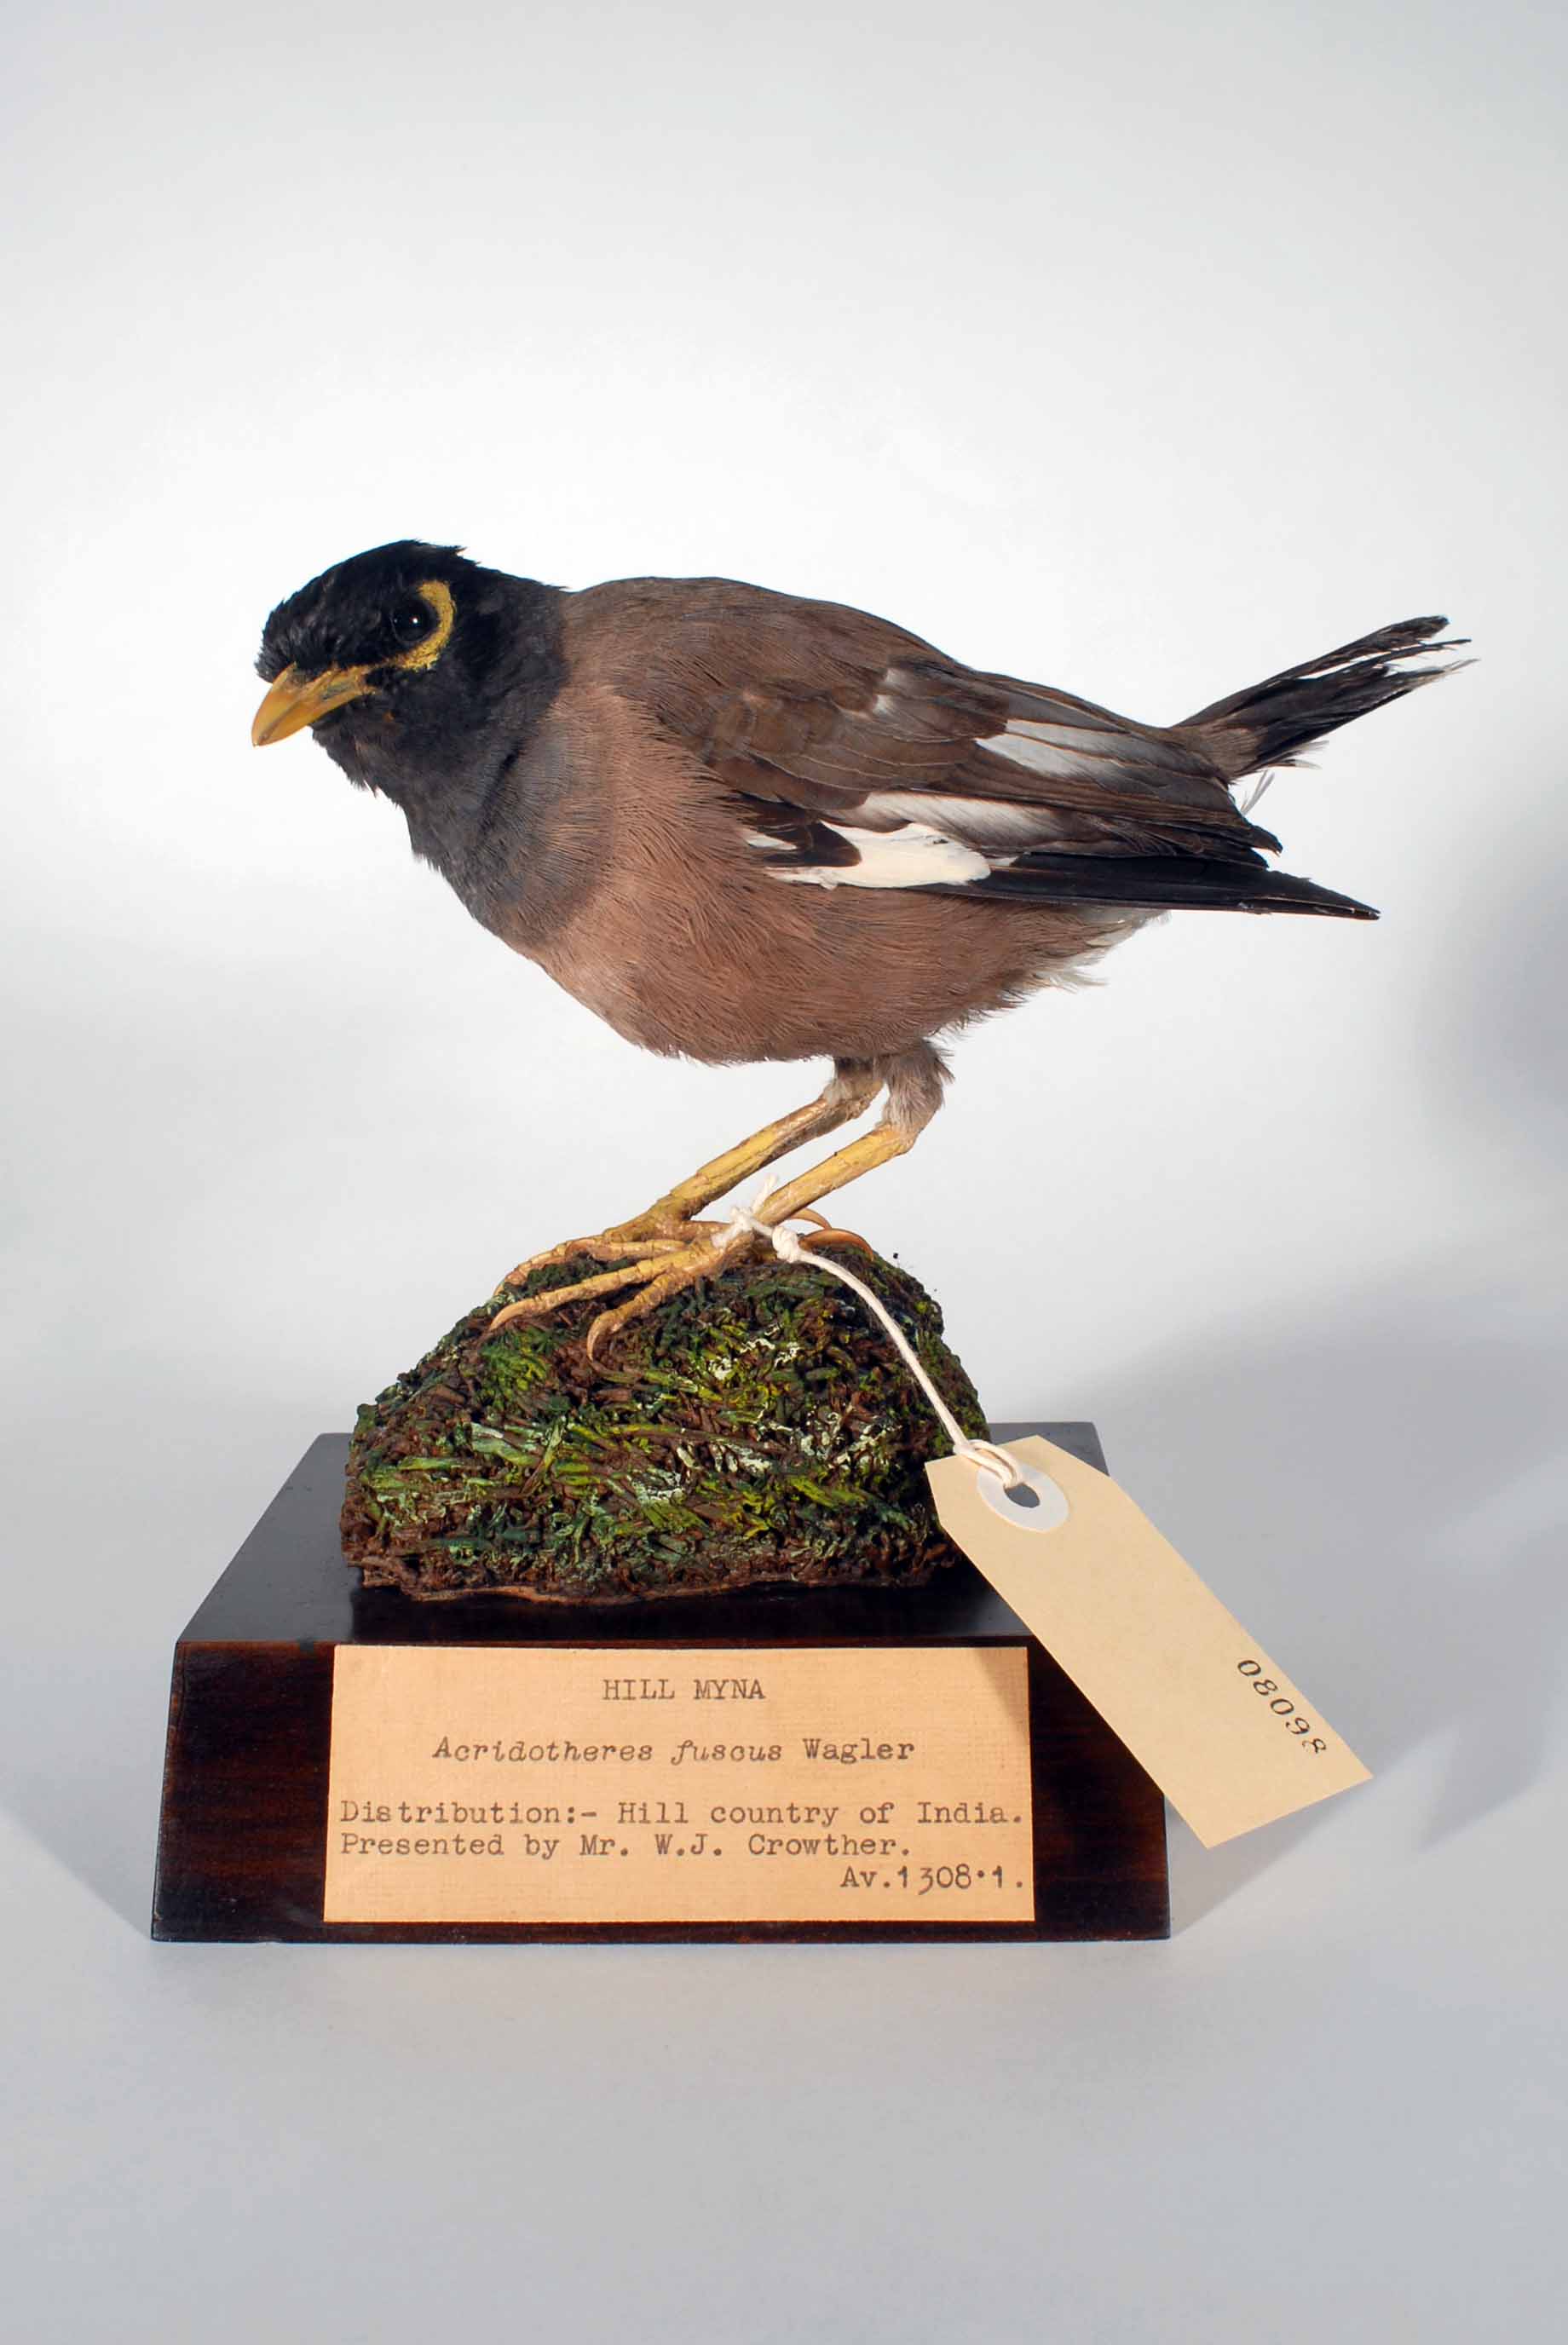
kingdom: Animalia
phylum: Chordata
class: Aves
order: Passeriformes
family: Sturnidae
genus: Acridotheres
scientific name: Acridotheres tristis
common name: Common myna
